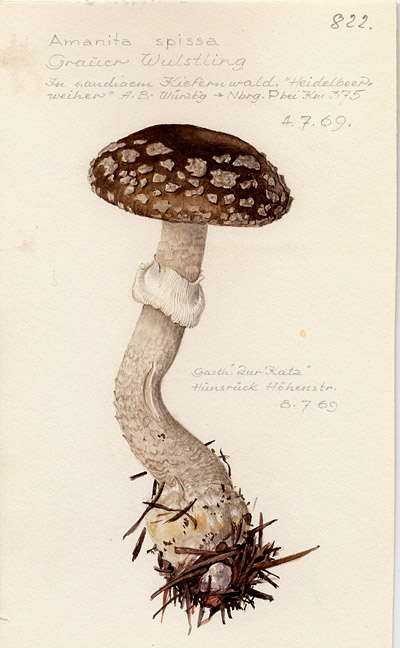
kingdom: Fungi
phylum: Basidiomycota
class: Agaricomycetes
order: Agaricales
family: Amanitaceae
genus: Amanita
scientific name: Amanita excelsa
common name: European false blusher
